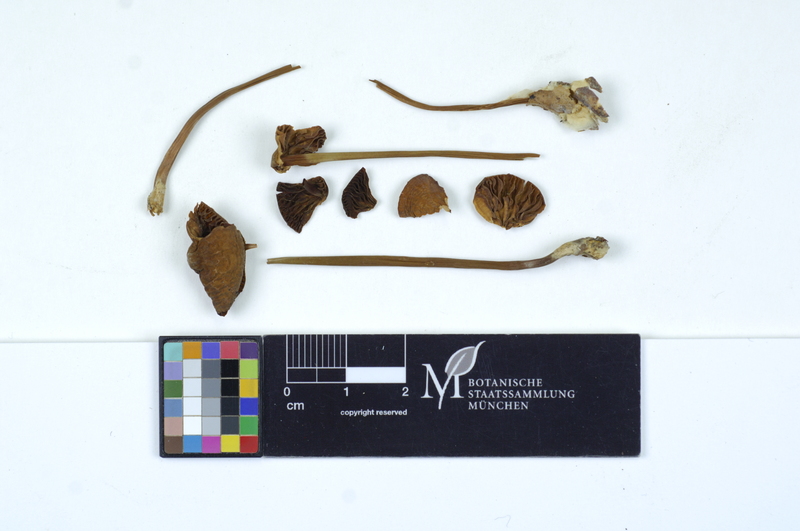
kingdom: Fungi
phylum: Basidiomycota
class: Agaricomycetes
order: Agaricales
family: Marasmiaceae
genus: Marasmius
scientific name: Marasmius cohaerens
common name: Bristled parachute
